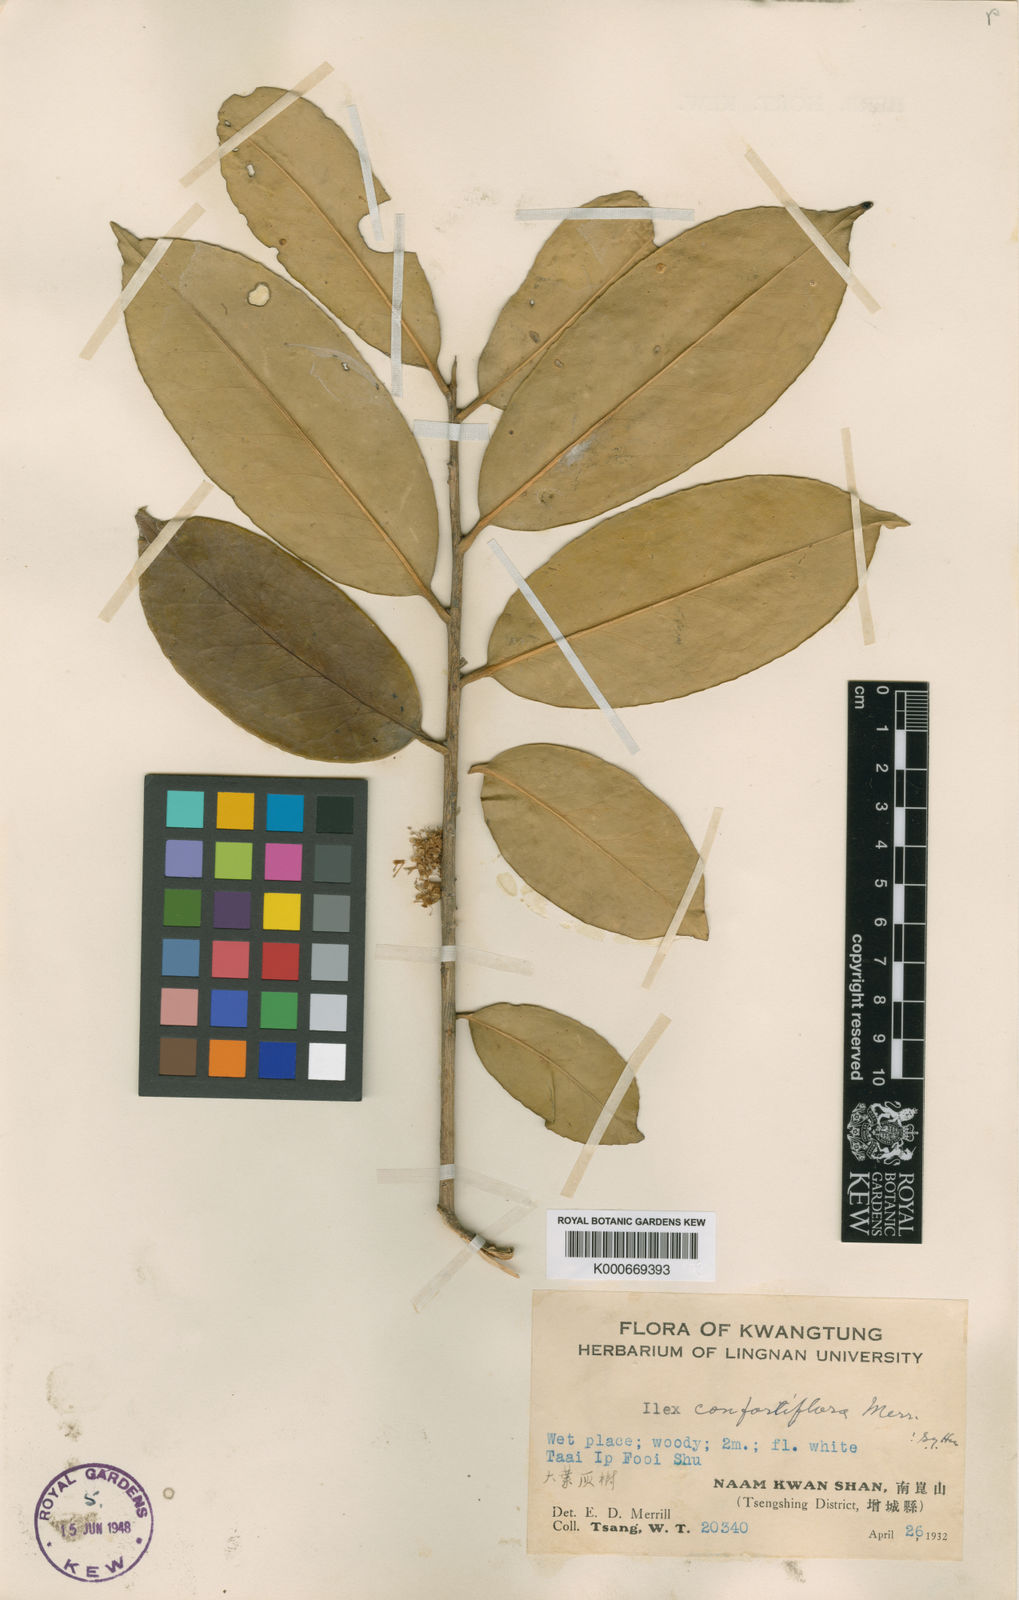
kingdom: Plantae
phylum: Tracheophyta
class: Magnoliopsida
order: Aquifoliales
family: Aquifoliaceae
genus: Ilex
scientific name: Ilex confertiflora
